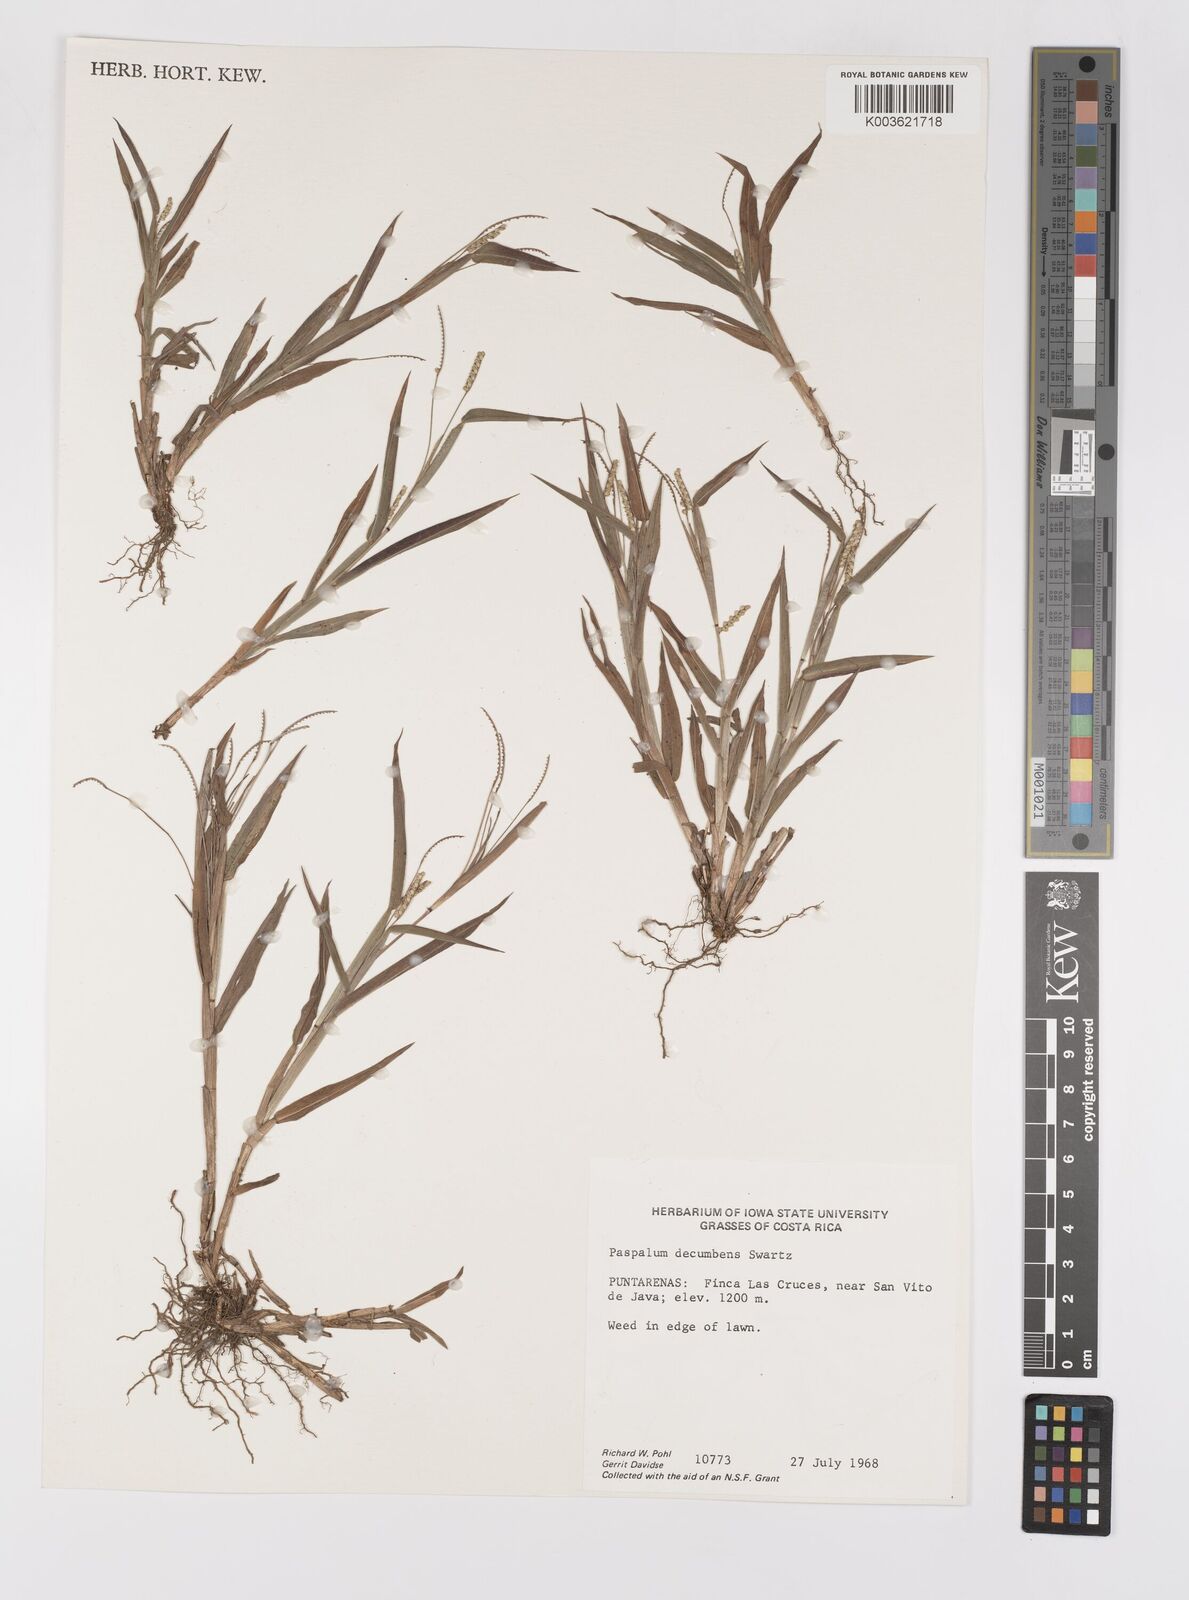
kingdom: Plantae
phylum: Tracheophyta
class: Liliopsida
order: Poales
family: Poaceae
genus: Paspalum
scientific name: Paspalum
